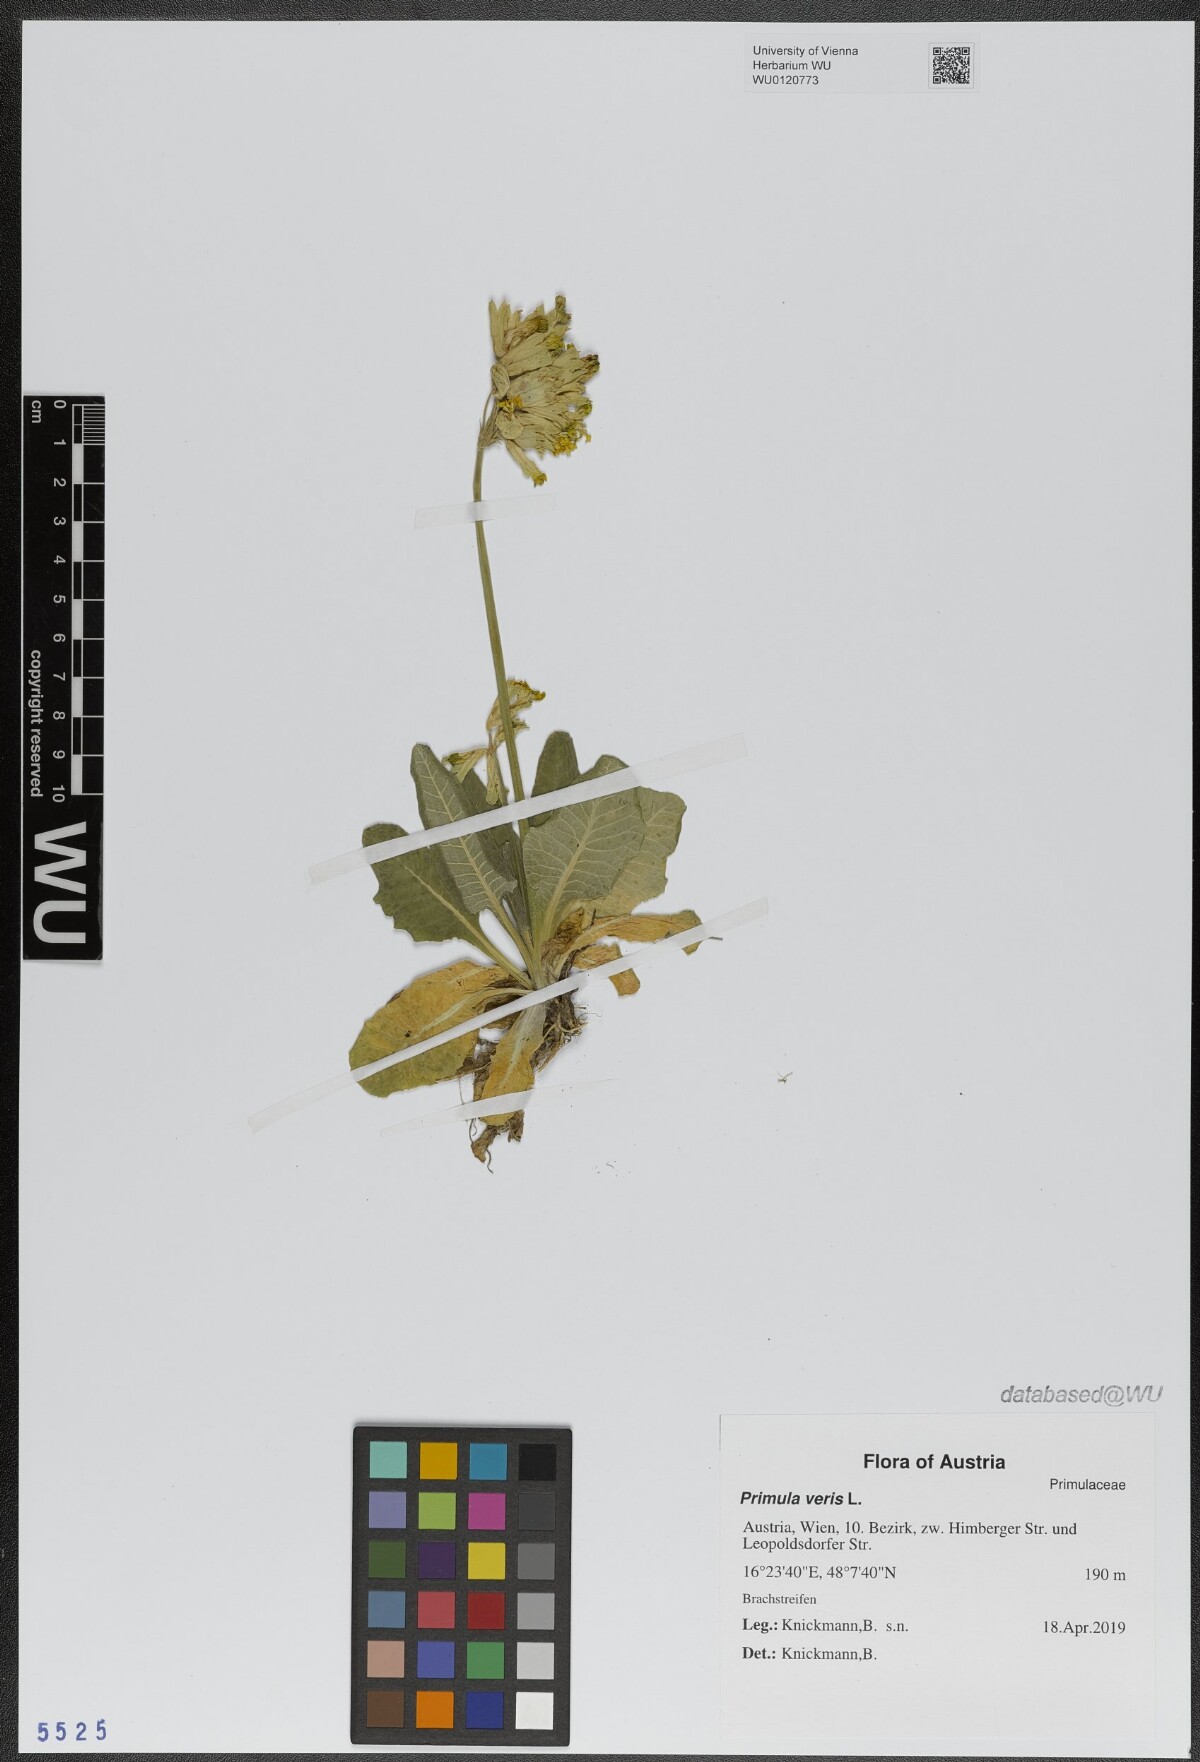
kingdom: Plantae
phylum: Tracheophyta
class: Magnoliopsida
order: Ericales
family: Primulaceae
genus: Primula
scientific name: Primula veris
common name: Cowslip
